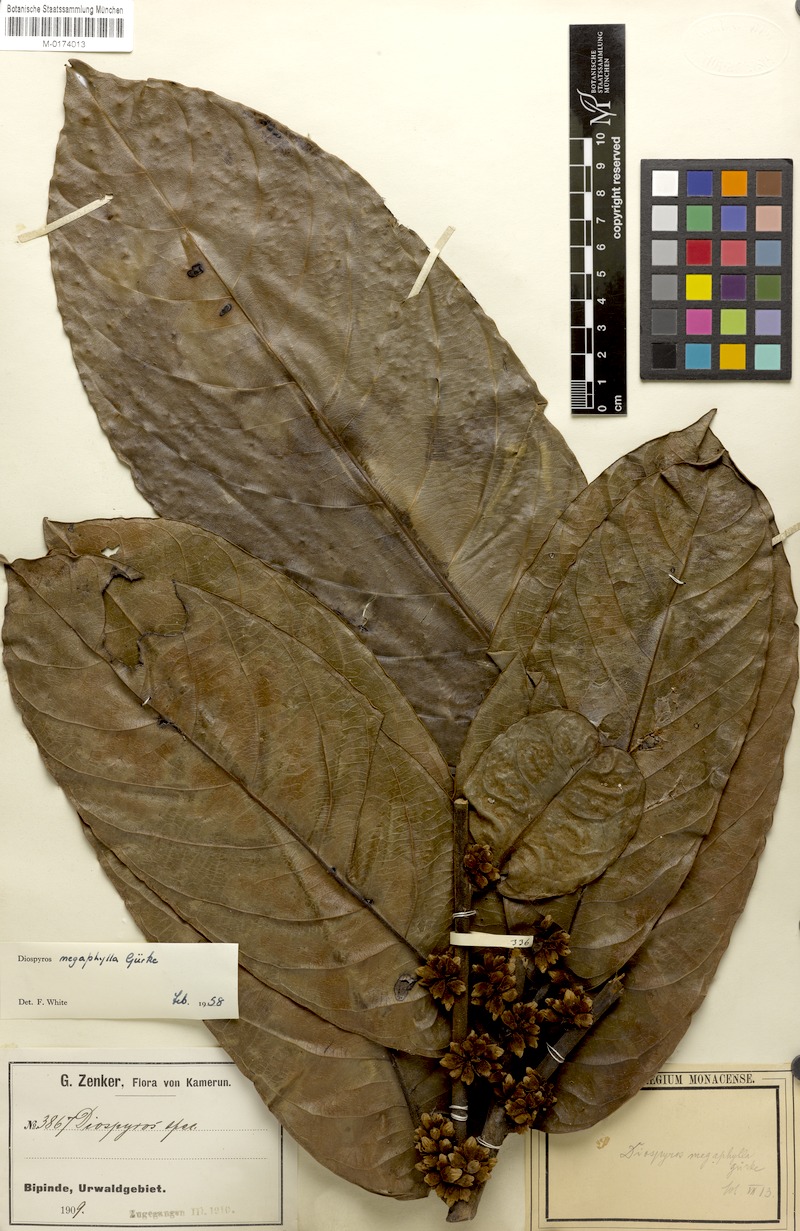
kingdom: Plantae
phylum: Tracheophyta
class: Magnoliopsida
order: Ericales
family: Ebenaceae
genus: Diospyros
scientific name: Diospyros gabunensis
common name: Flint bark tree
